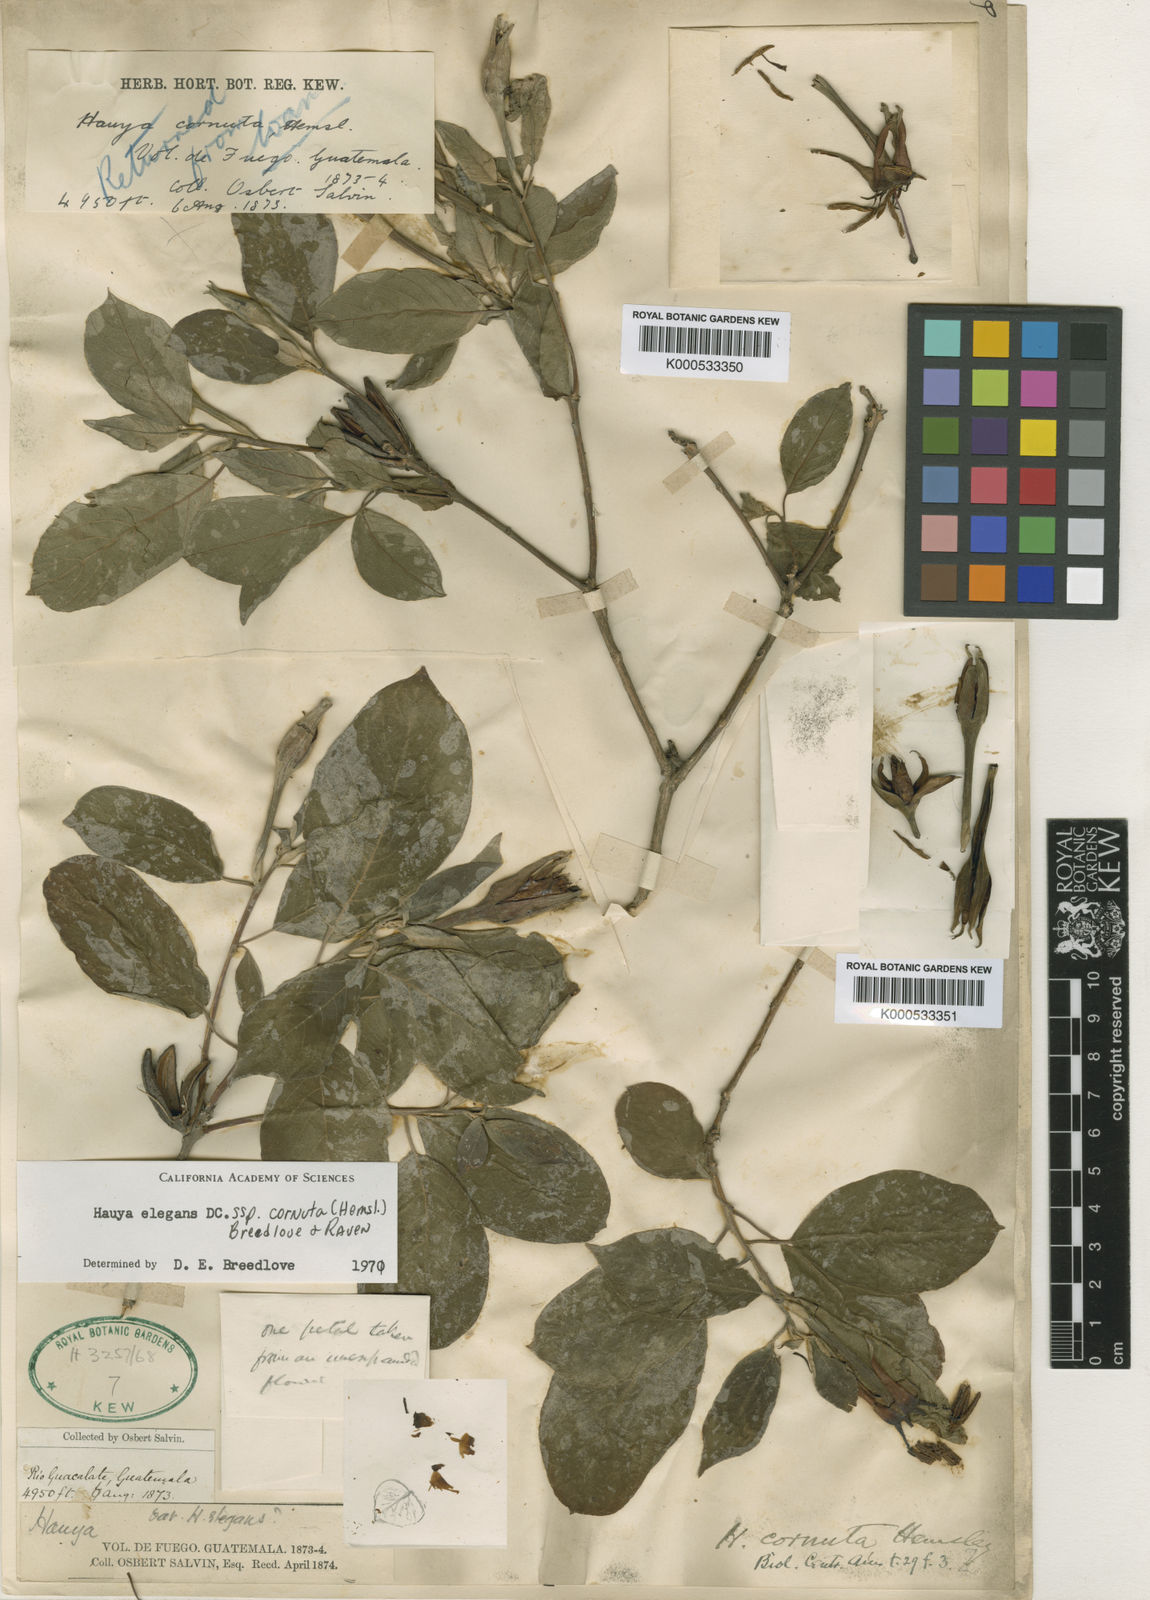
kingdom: Plantae
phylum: Tracheophyta
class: Magnoliopsida
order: Myrtales
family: Onagraceae
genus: Hauya
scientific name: Hauya elegans
